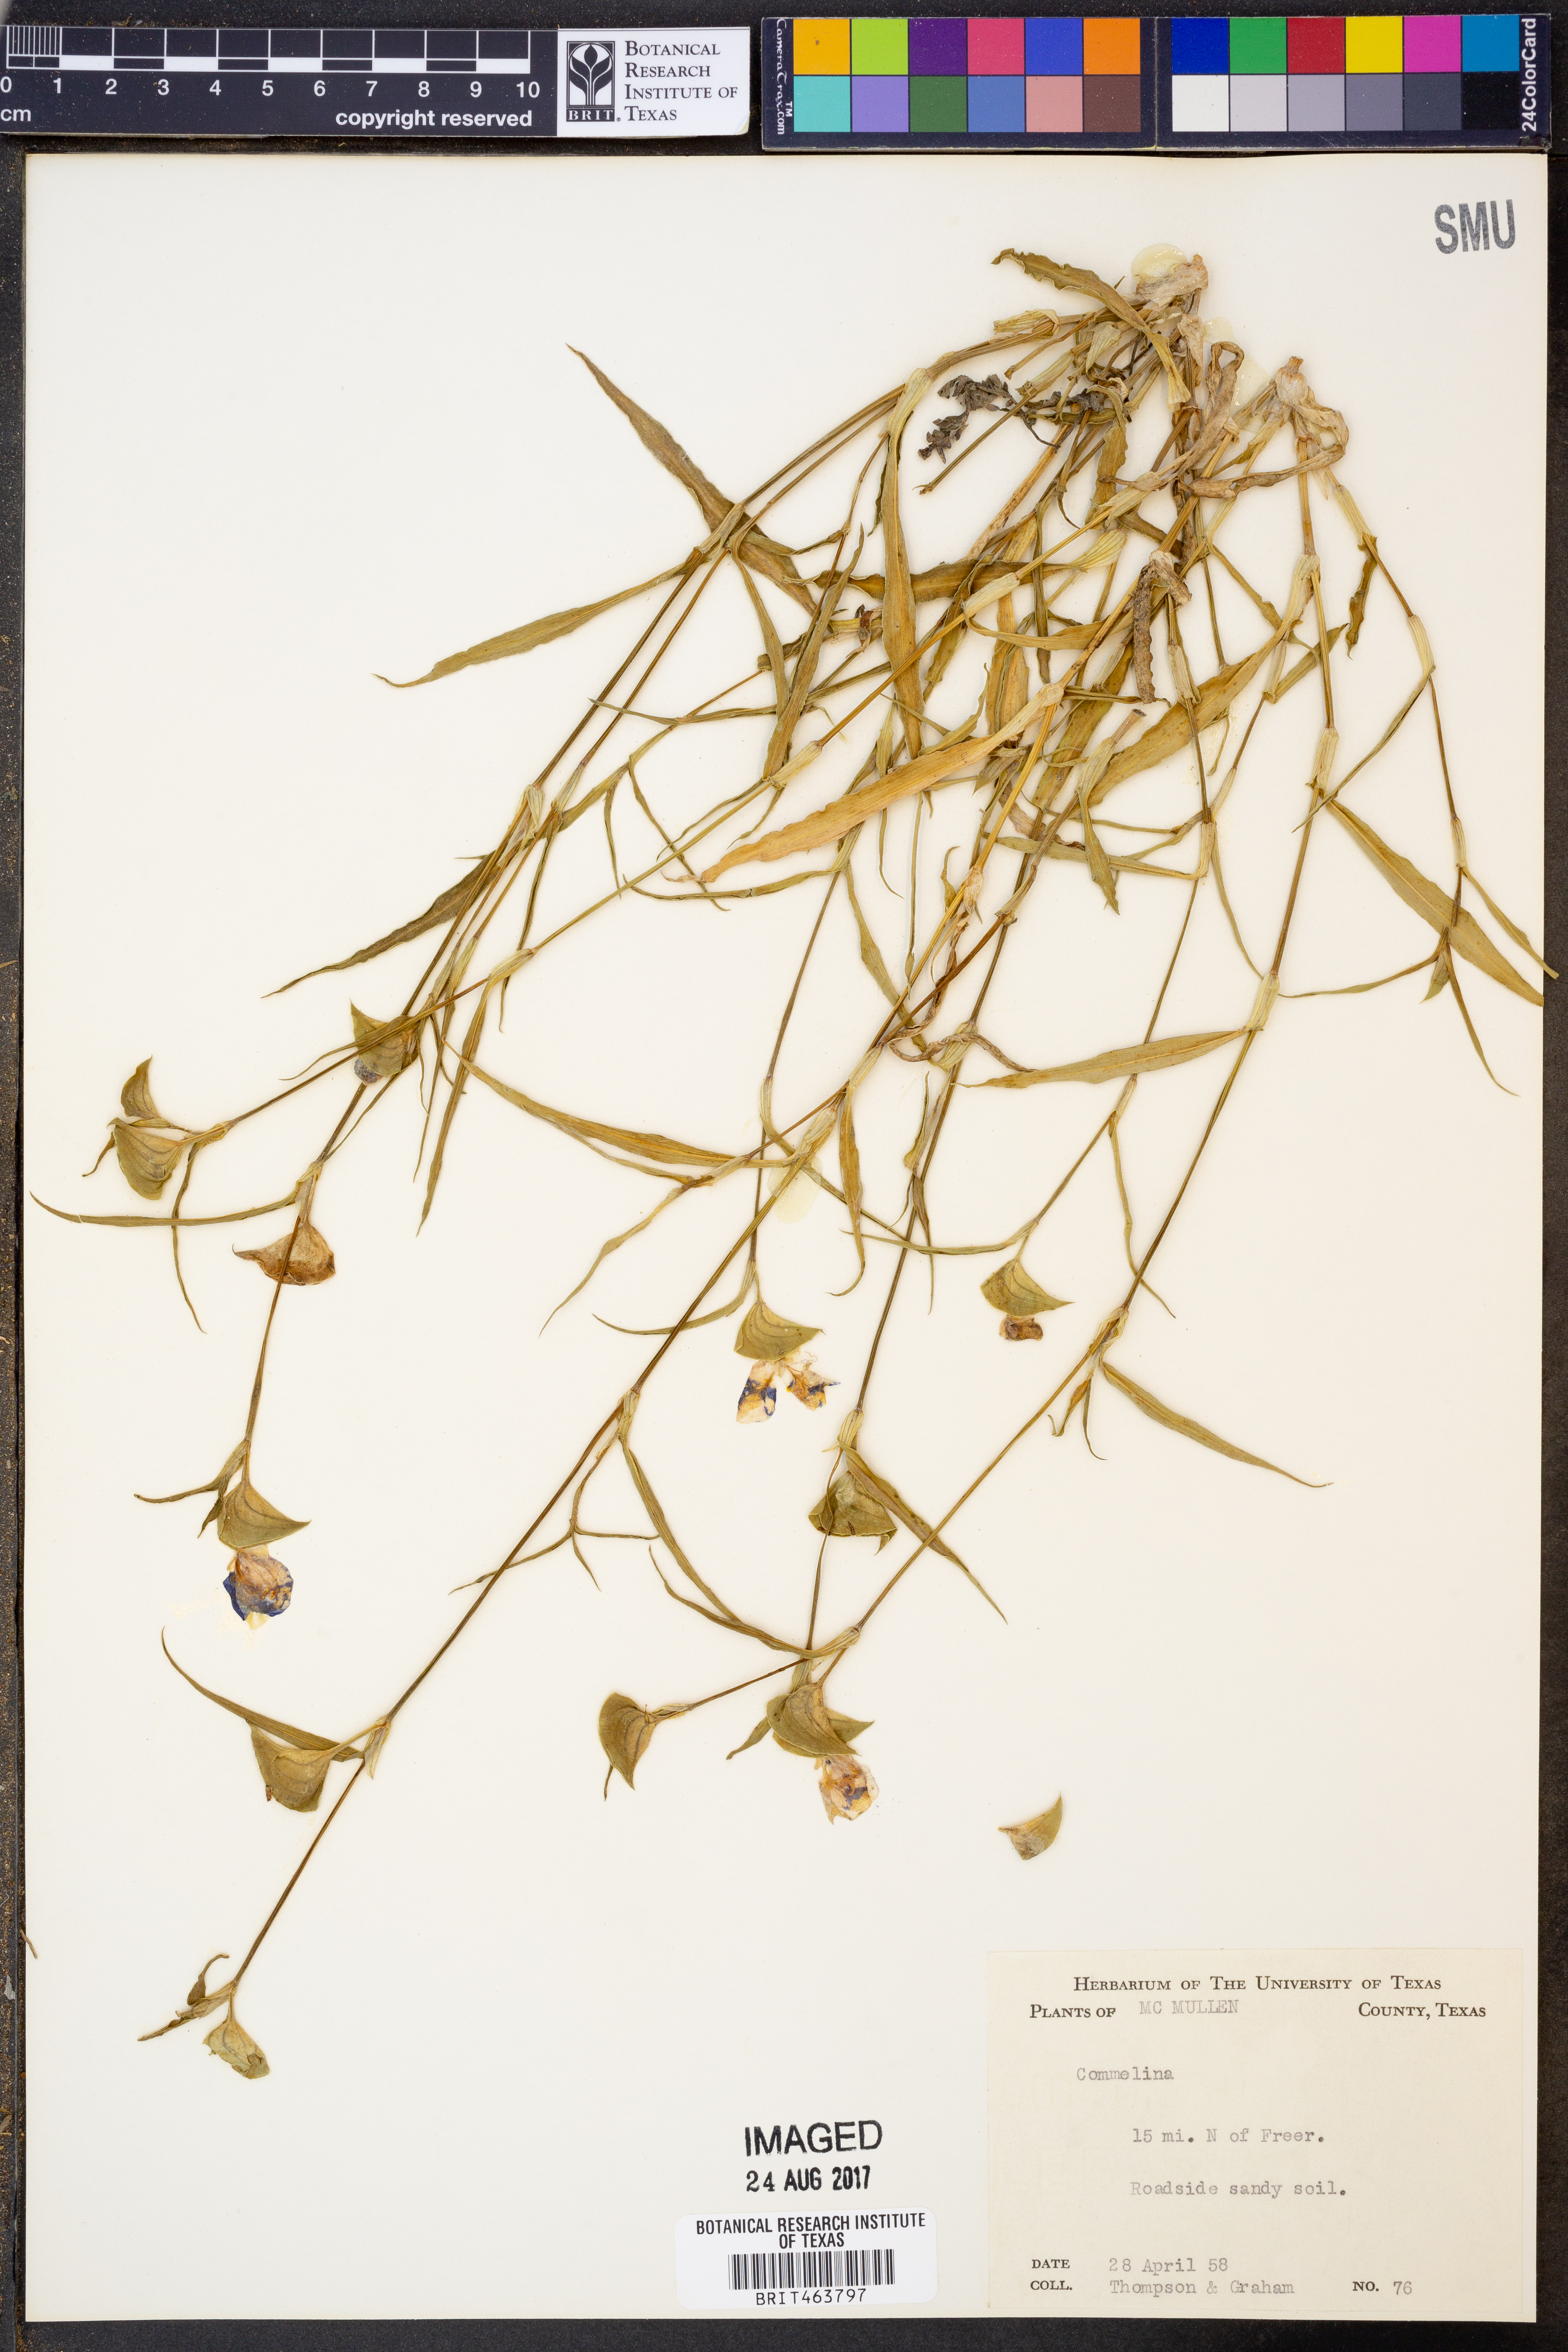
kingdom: Plantae
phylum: Tracheophyta
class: Liliopsida
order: Commelinales
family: Commelinaceae
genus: Commelina
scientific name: Commelina
